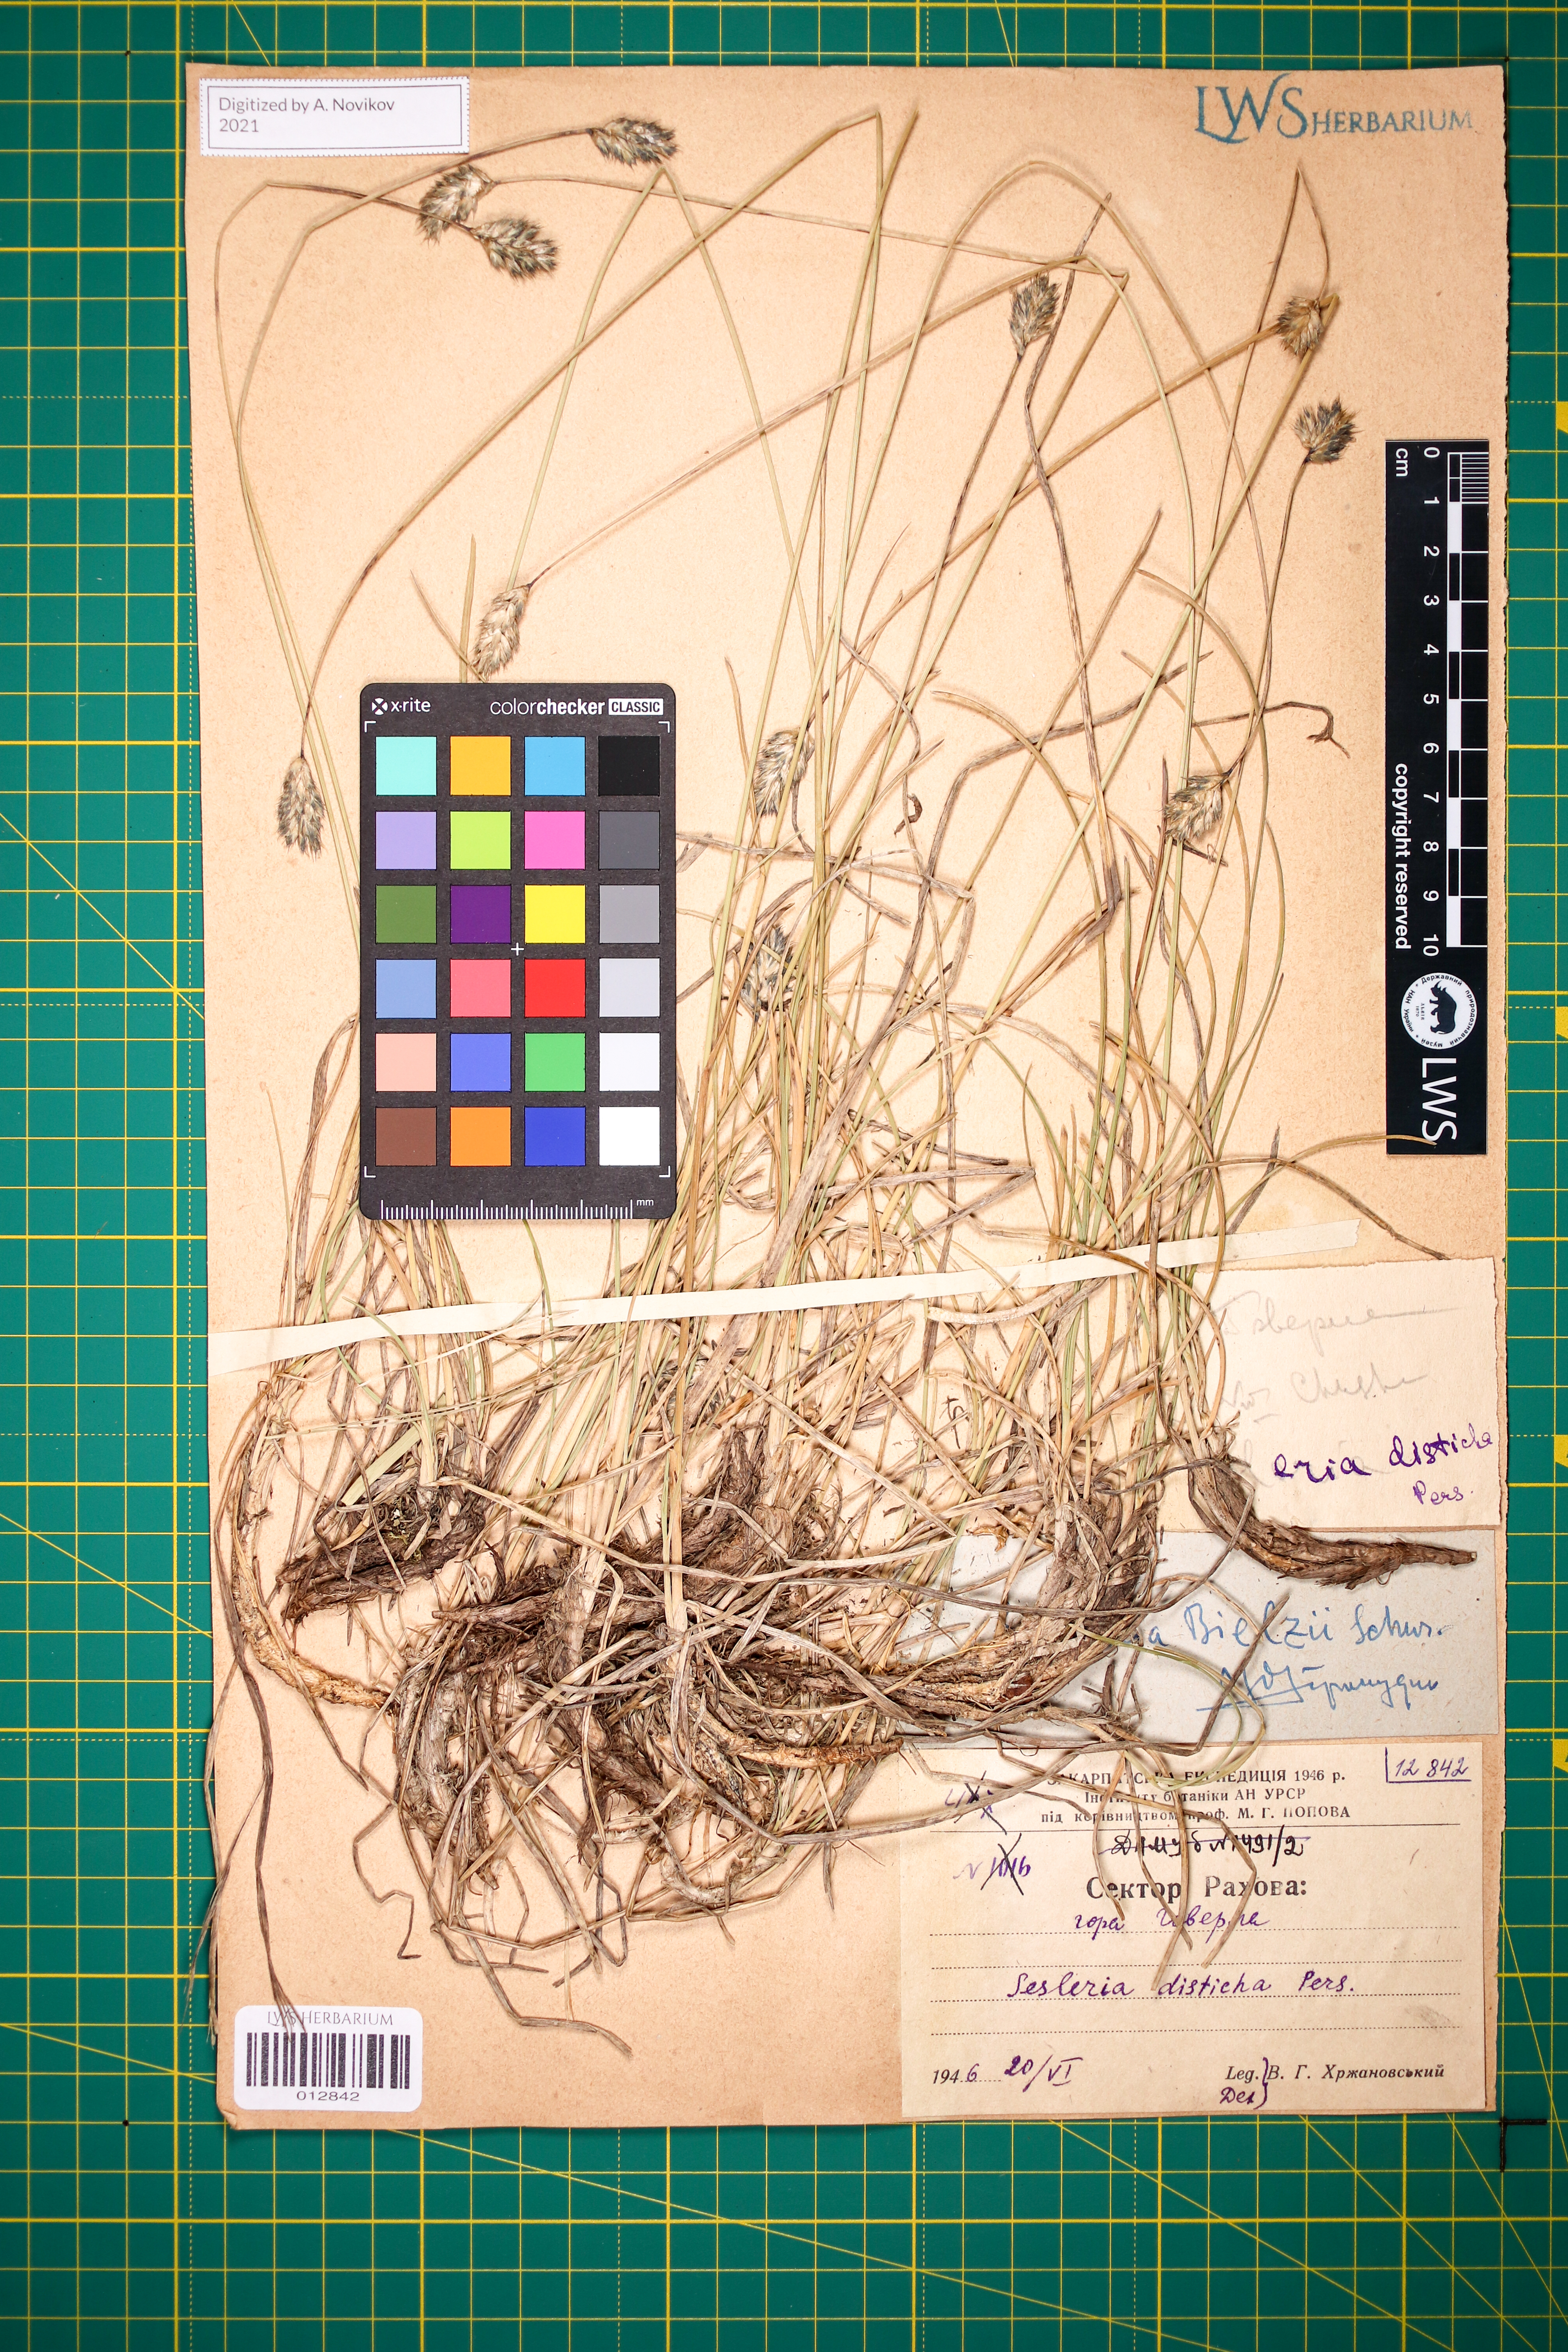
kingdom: Plantae
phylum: Tracheophyta
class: Liliopsida
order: Poales
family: Poaceae
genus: Sesleria
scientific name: Sesleria bielzii
